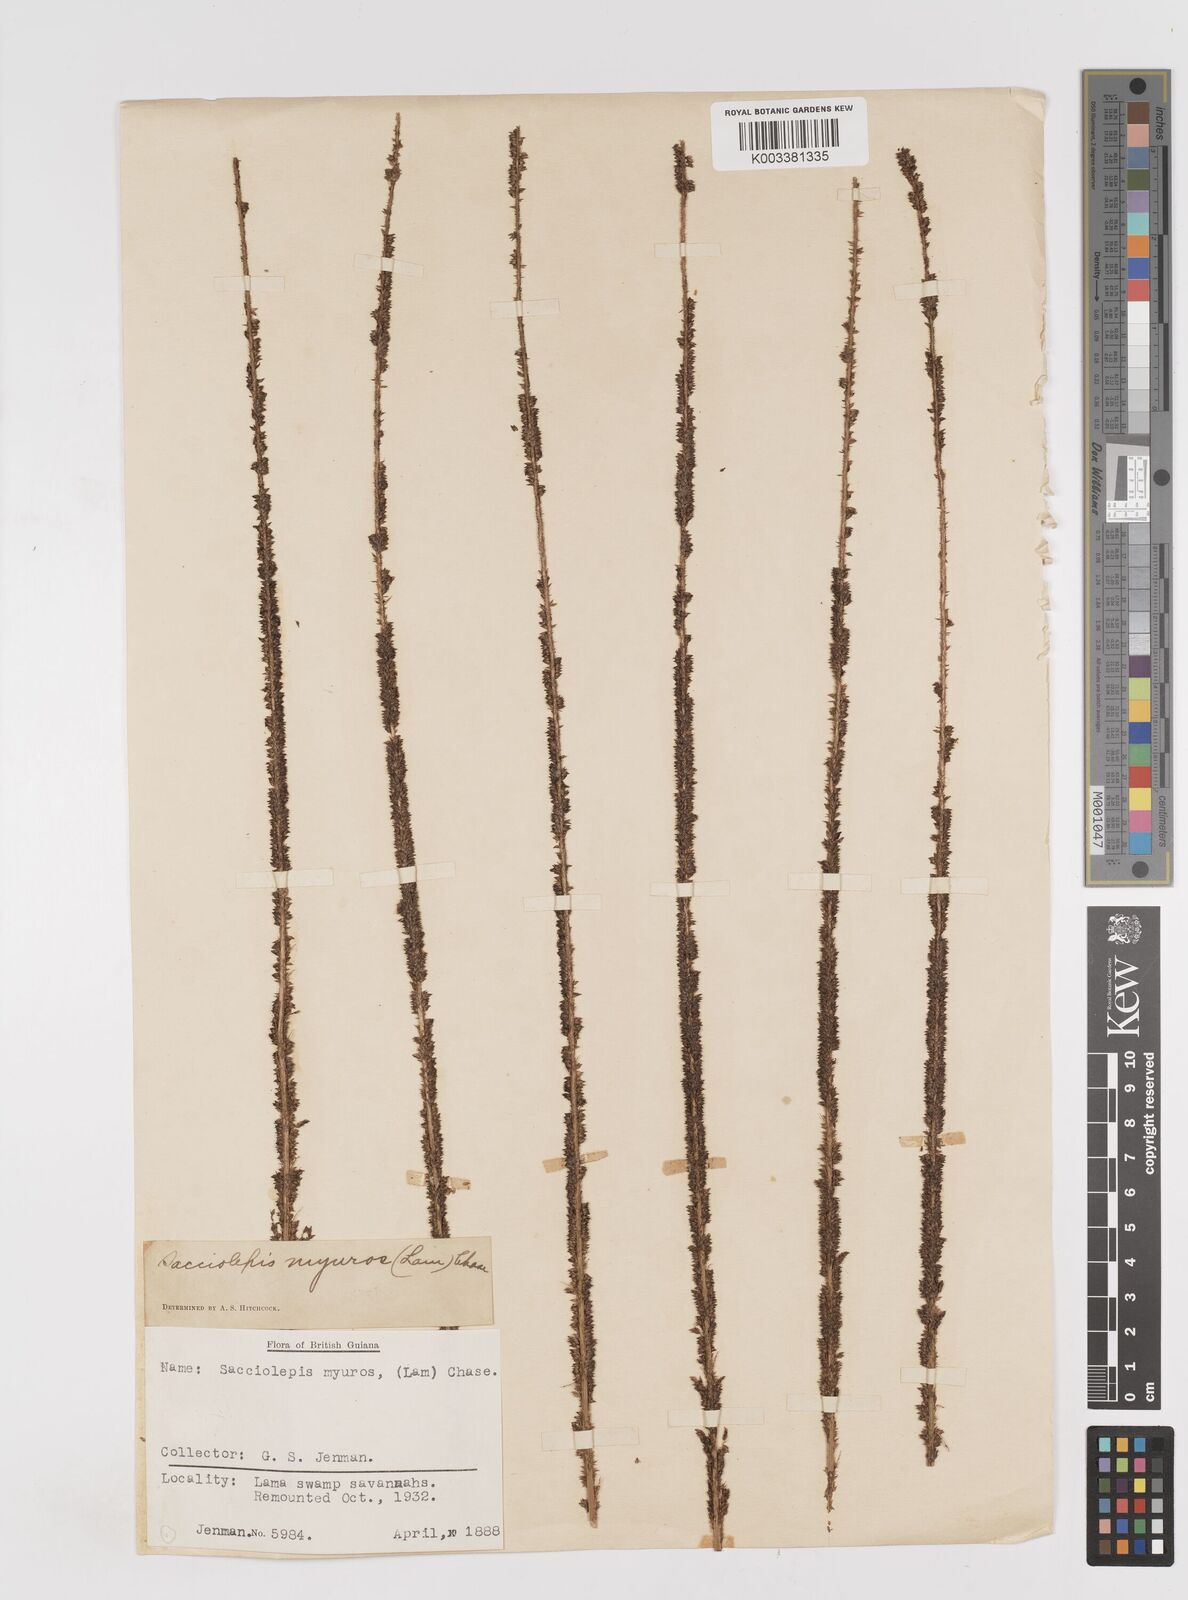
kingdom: Plantae
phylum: Tracheophyta
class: Liliopsida
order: Poales
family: Poaceae
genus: Sacciolepis
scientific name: Sacciolepis myuros
